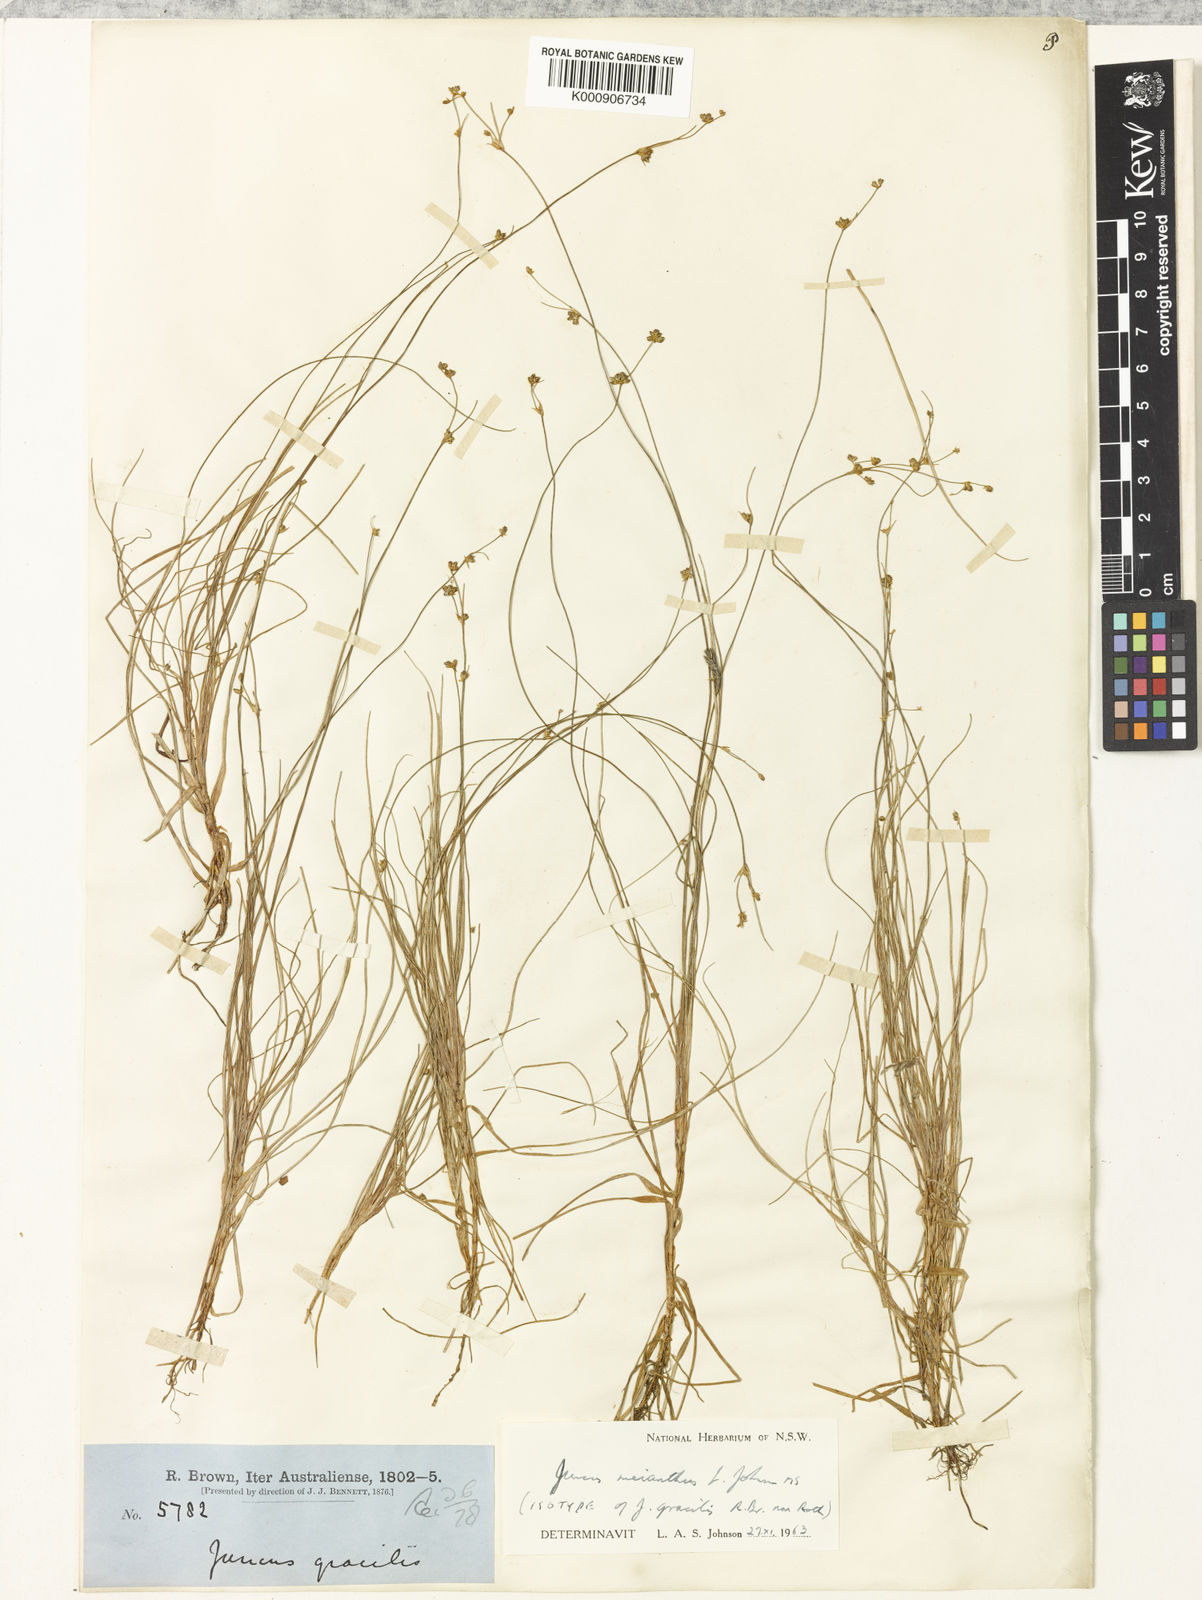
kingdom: Plantae
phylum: Tracheophyta
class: Liliopsida
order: Poales
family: Juncaceae
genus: Juncus
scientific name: Juncus meianthus
